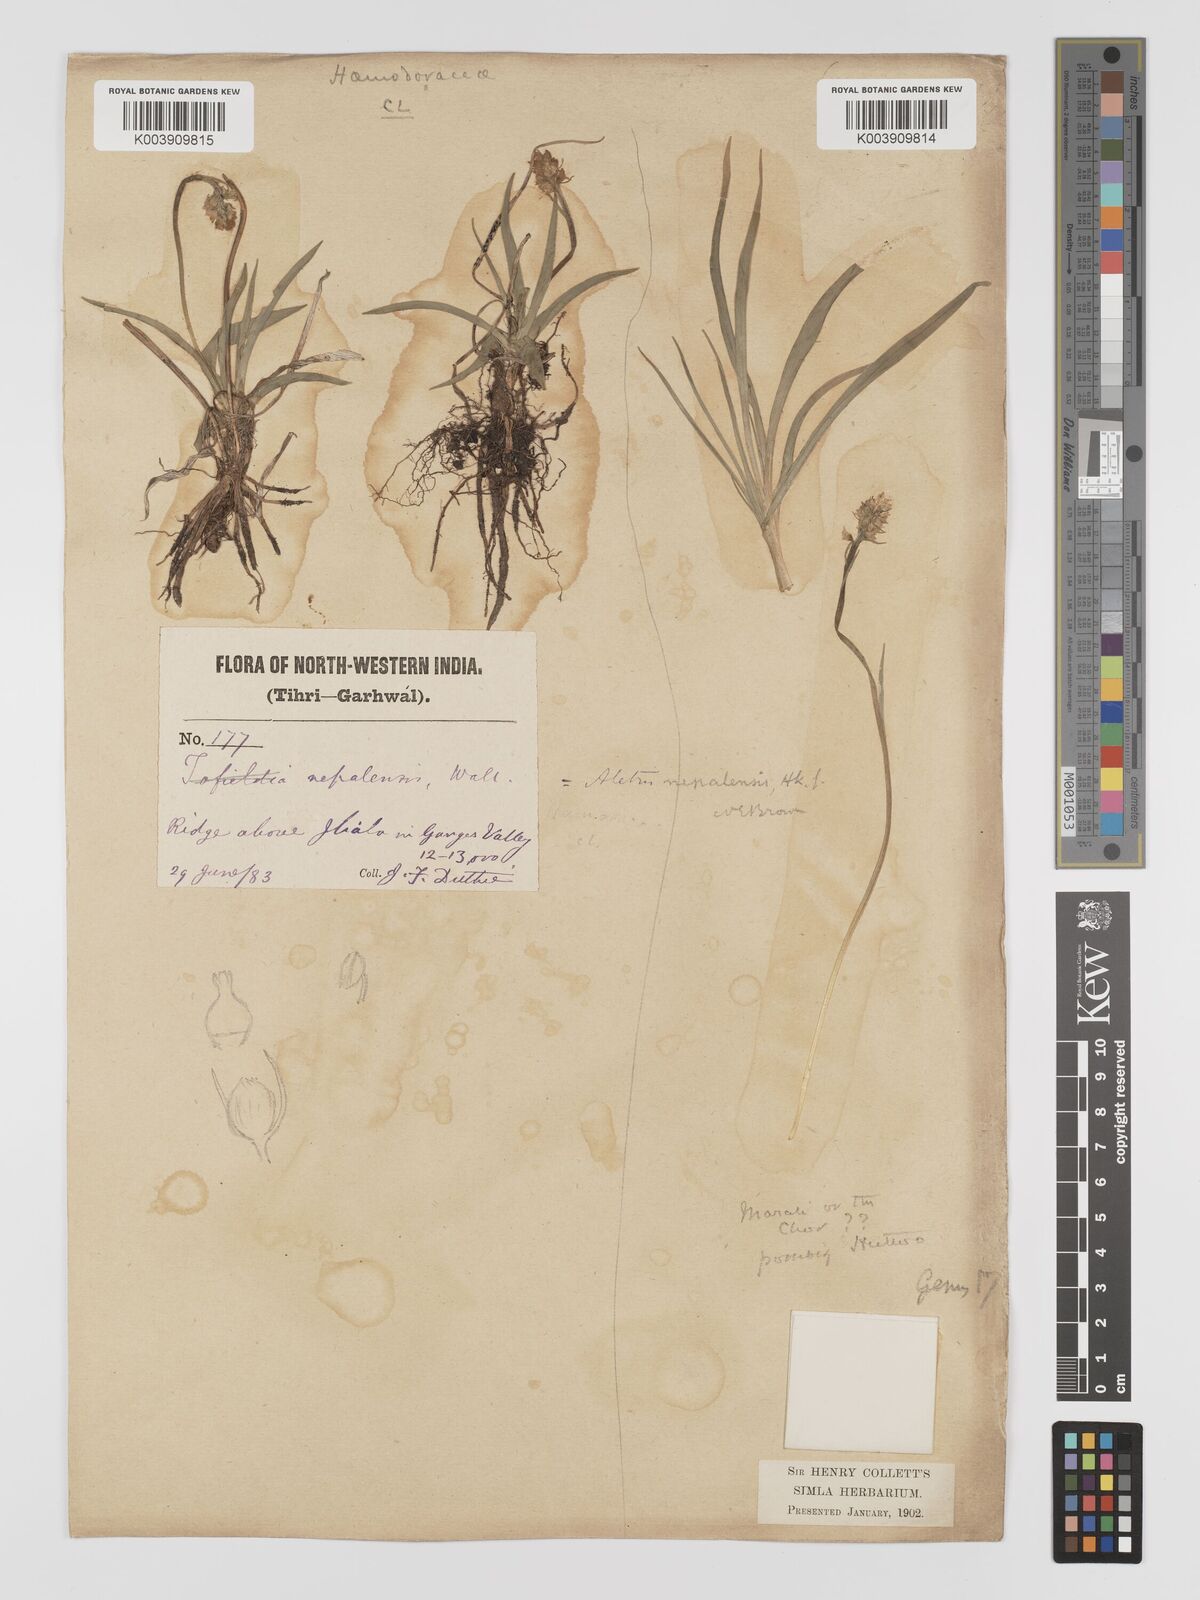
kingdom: Plantae
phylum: Tracheophyta
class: Liliopsida
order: Dioscoreales
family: Nartheciaceae
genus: Aletris
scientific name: Aletris pauciflora
